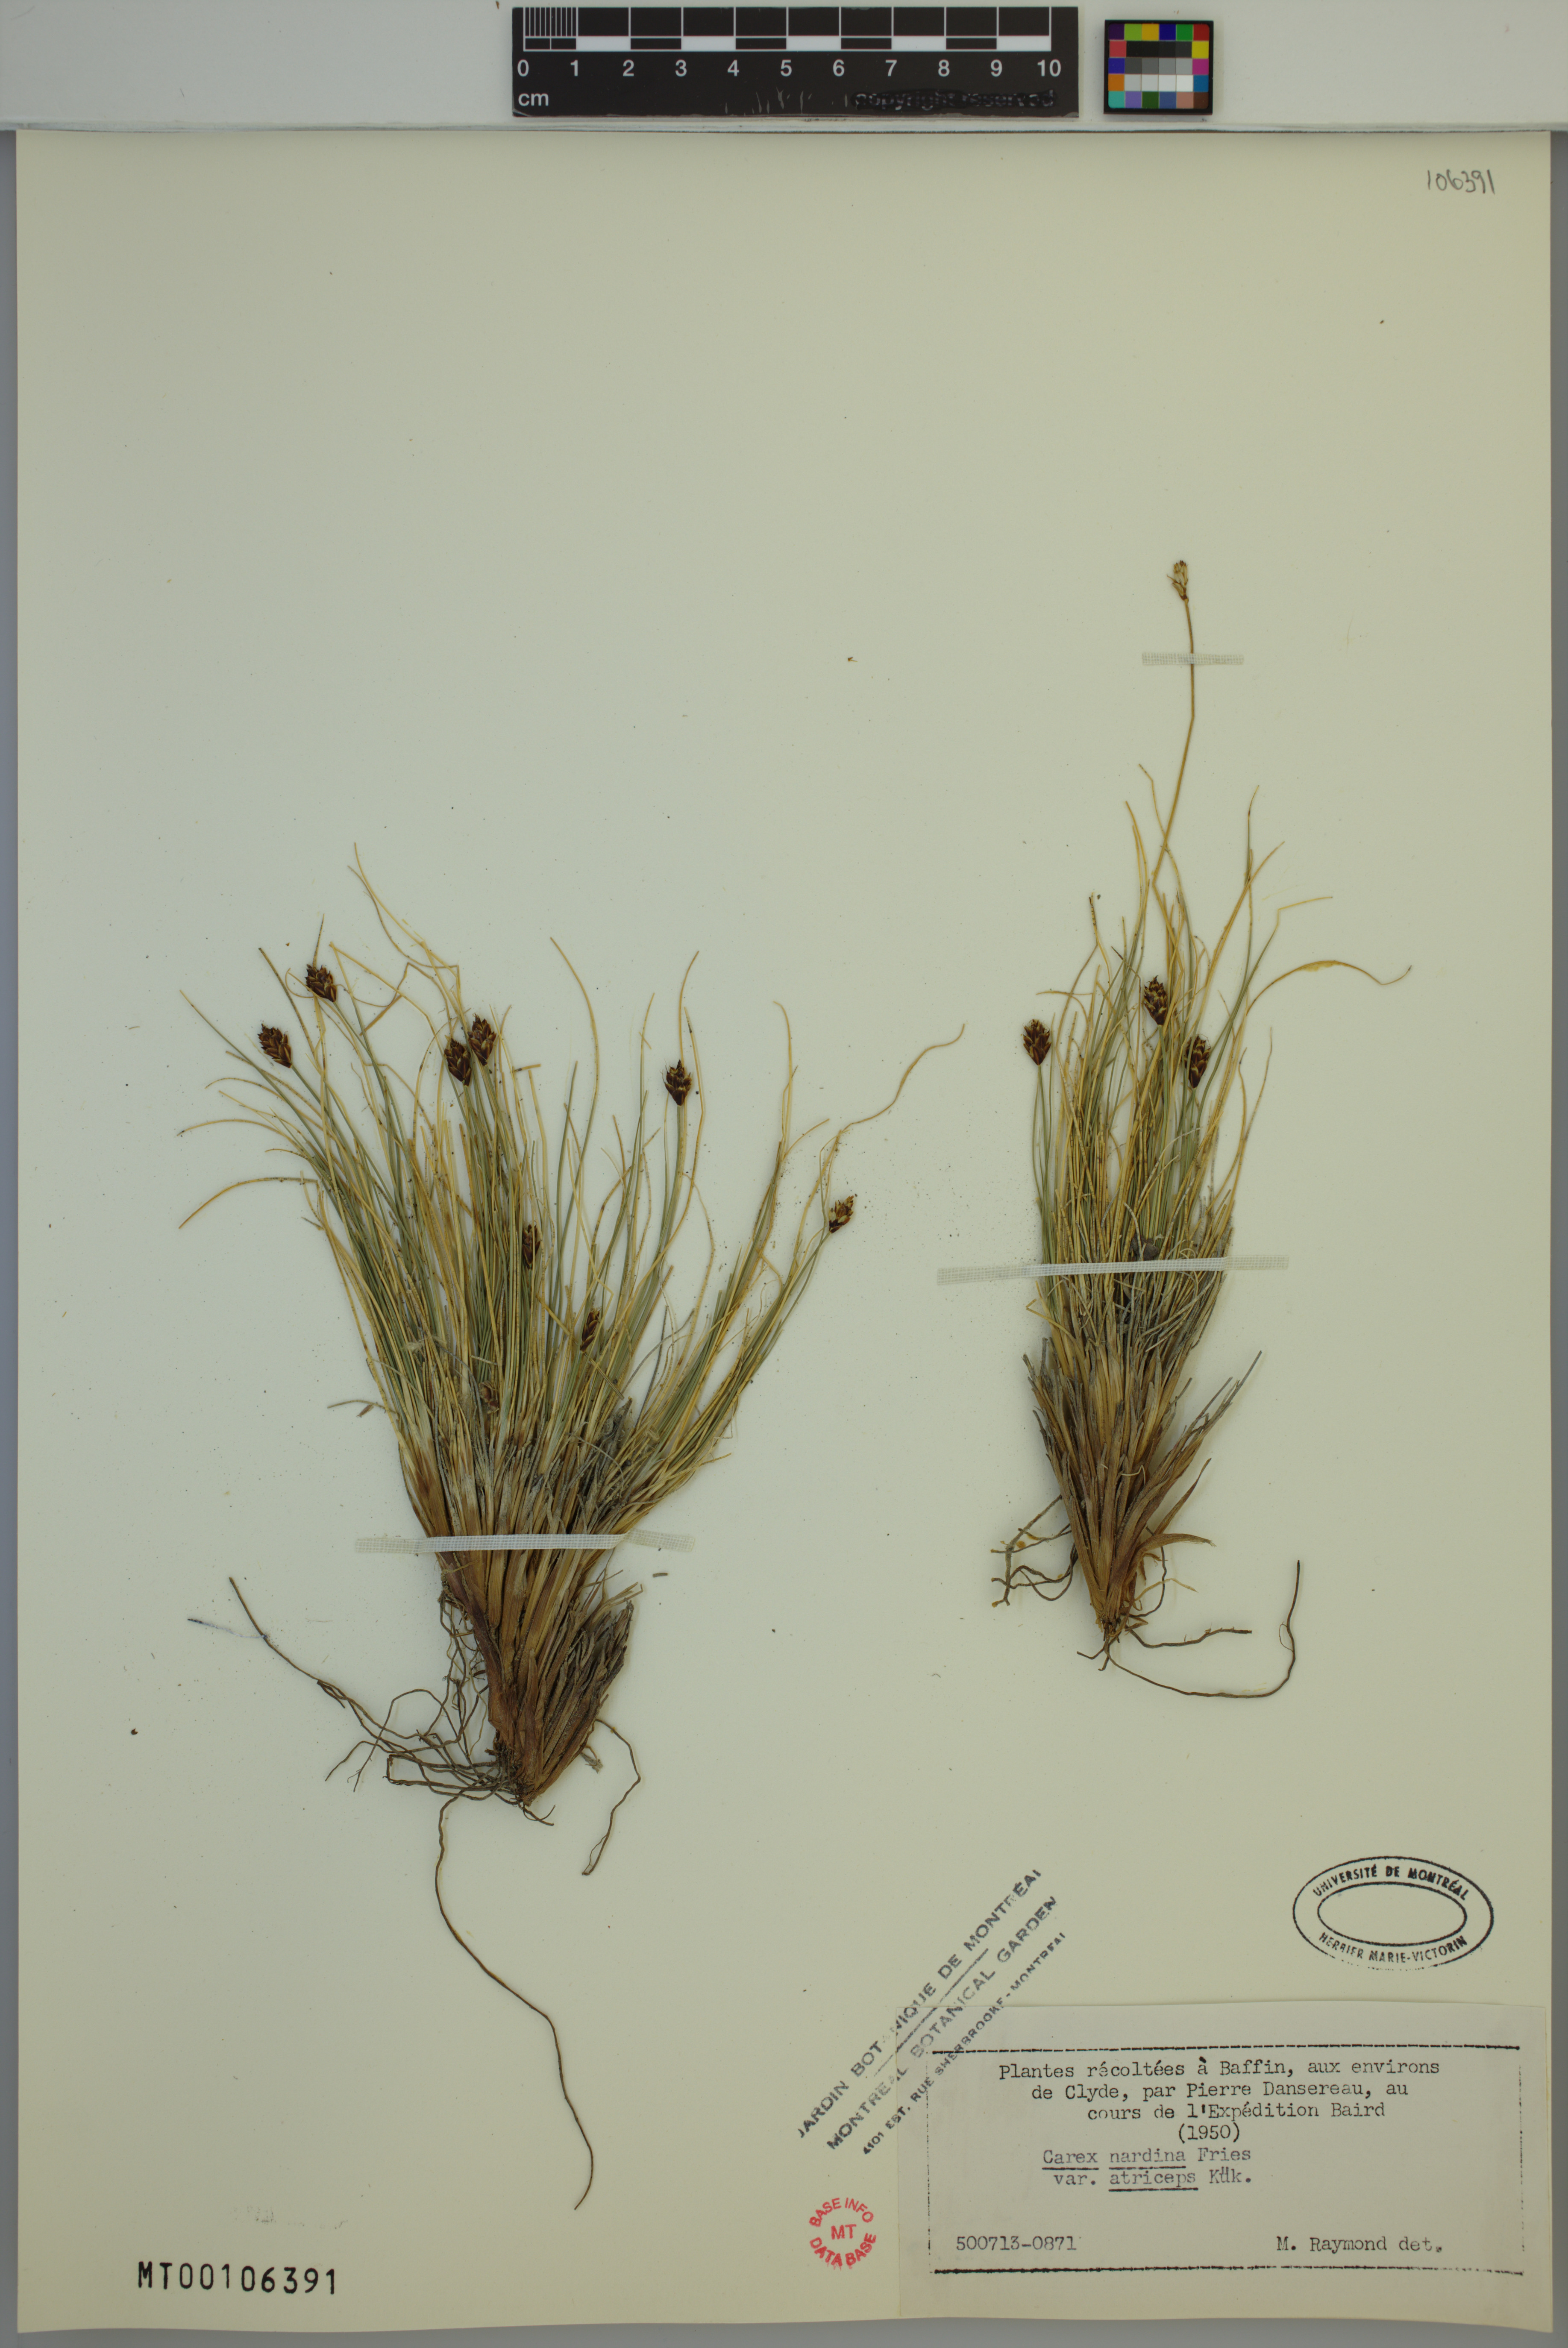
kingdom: Plantae
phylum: Tracheophyta
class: Liliopsida
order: Poales
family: Cyperaceae
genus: Carex
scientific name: Carex nardina
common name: Nard sedge
